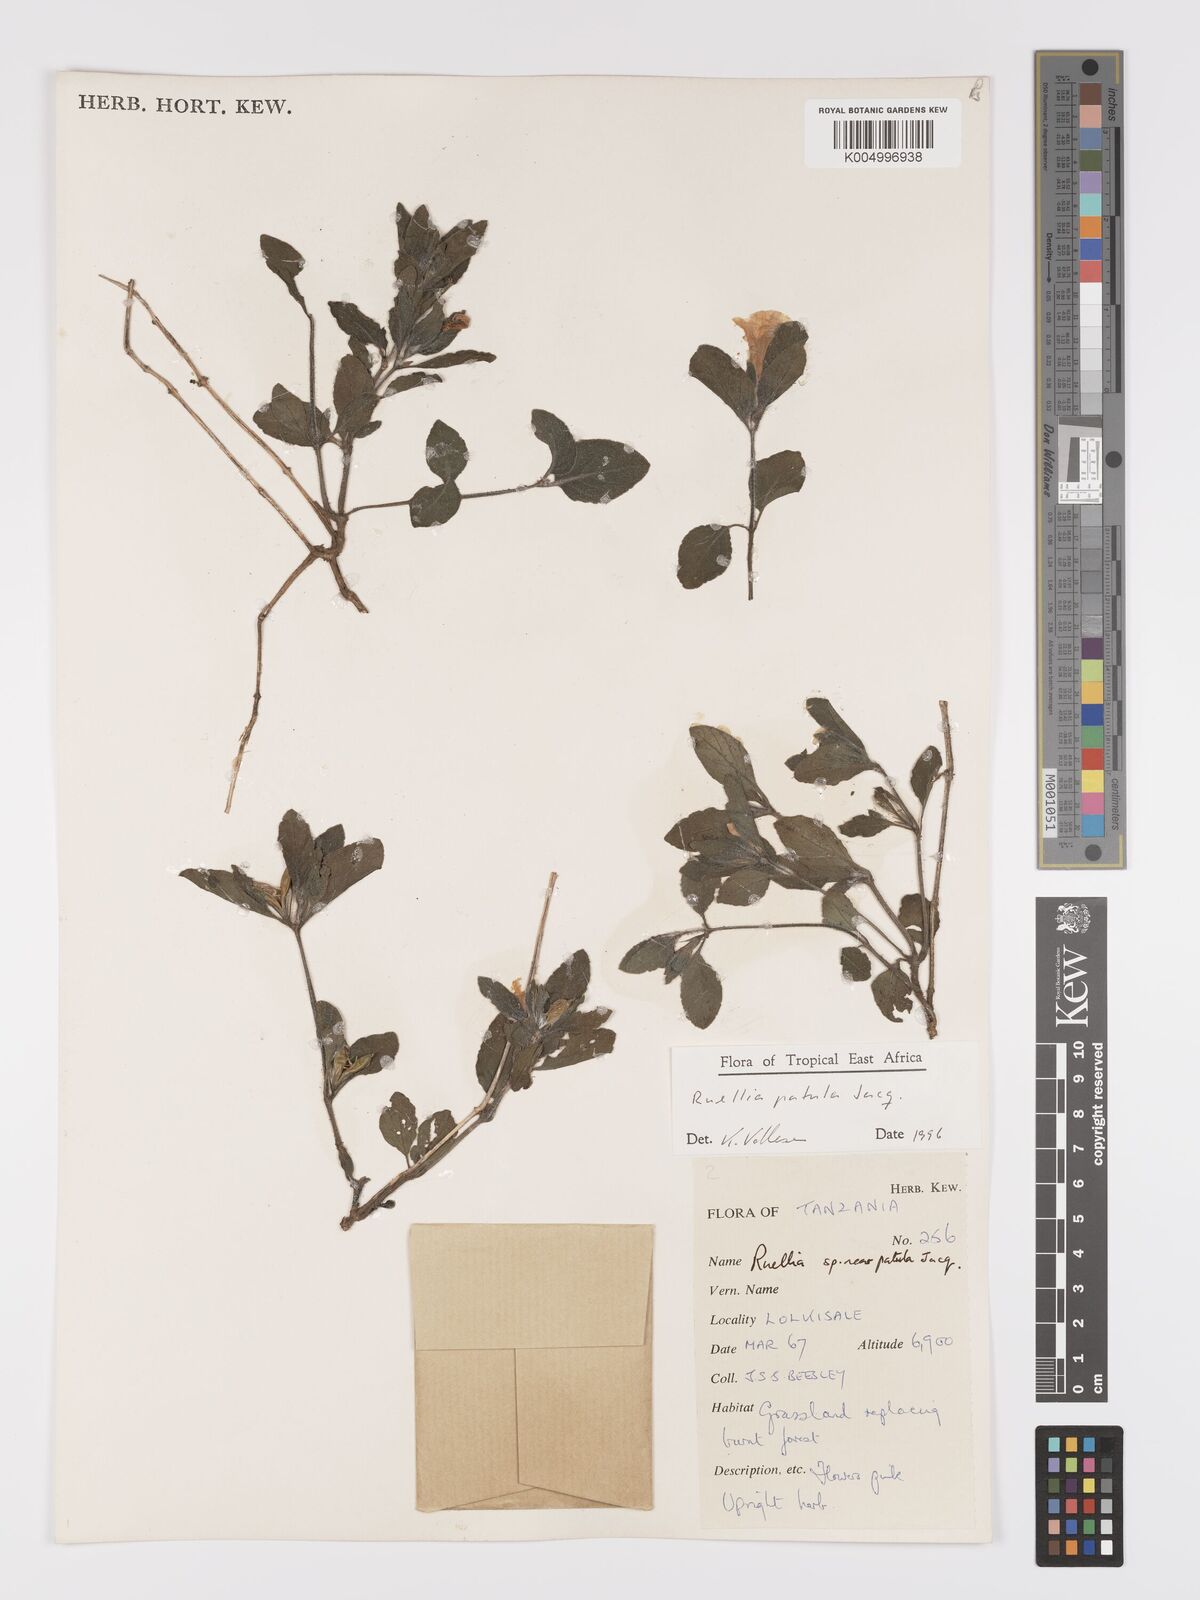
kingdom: Plantae
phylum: Tracheophyta
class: Magnoliopsida
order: Lamiales
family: Acanthaceae
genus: Ruellia
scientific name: Ruellia patula
